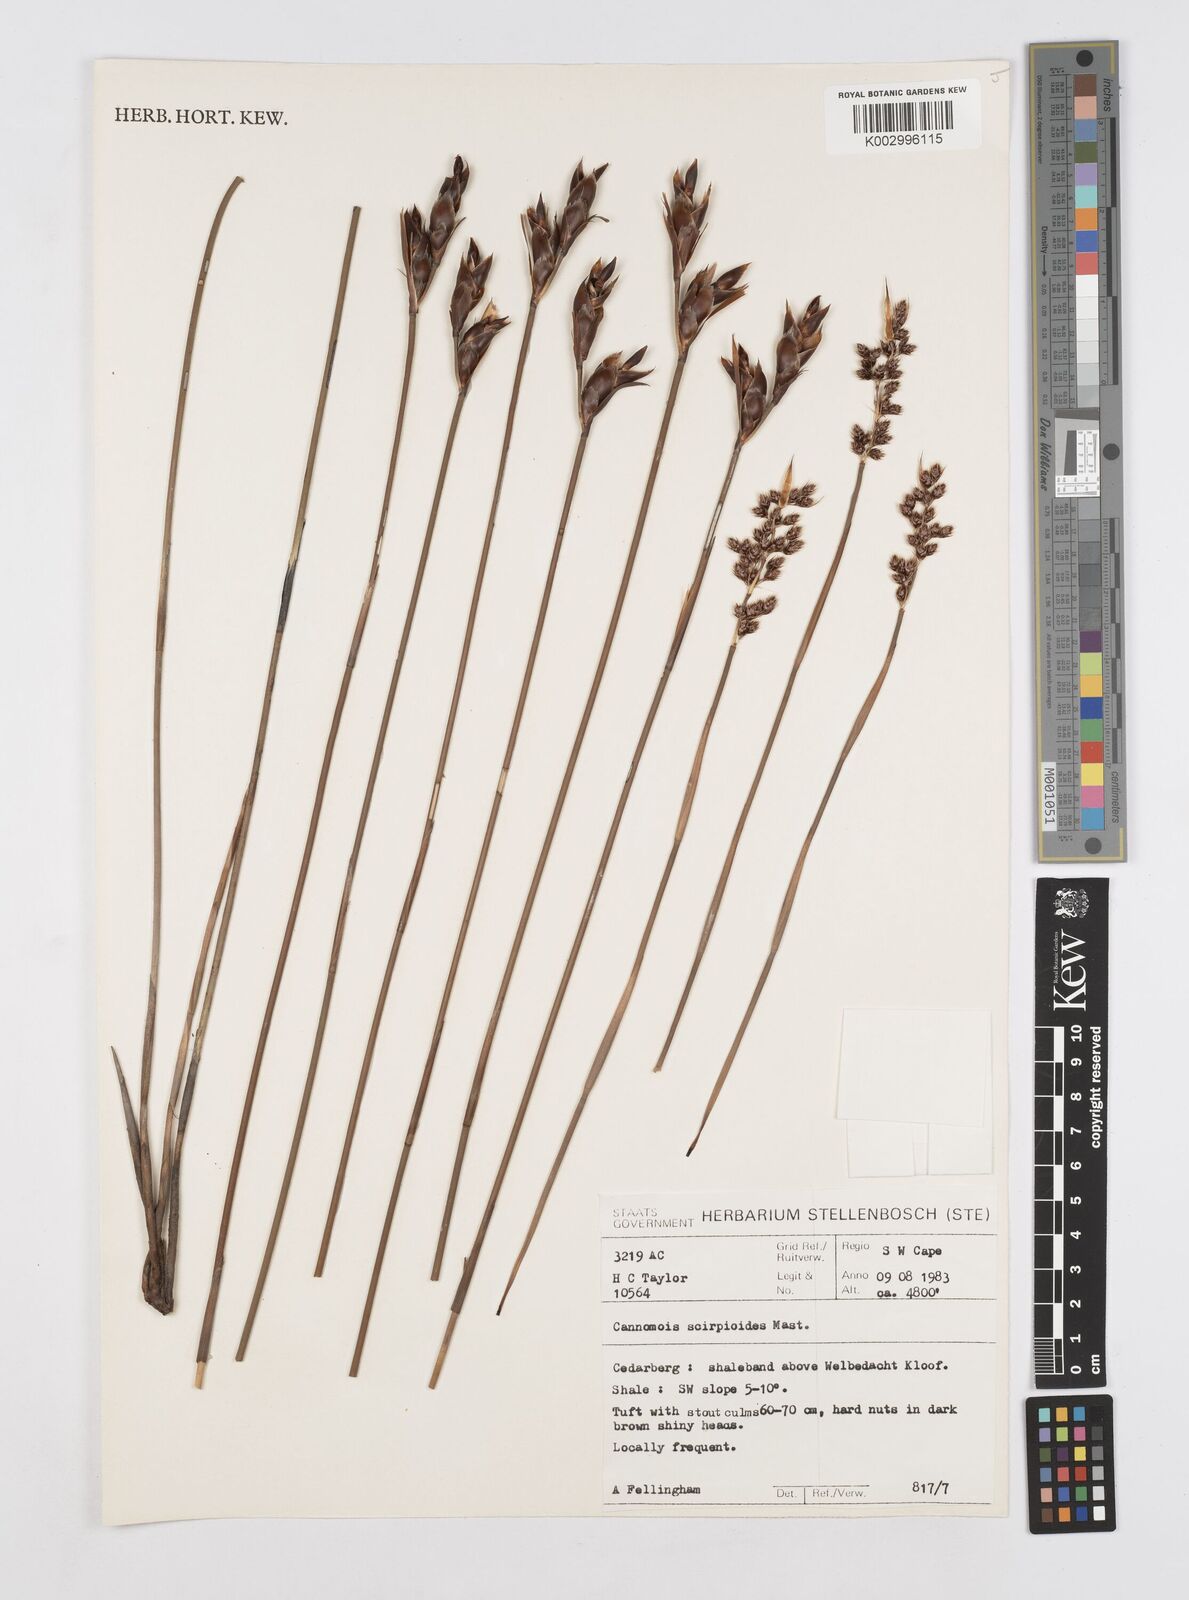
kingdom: Plantae
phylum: Tracheophyta
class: Liliopsida
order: Poales
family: Restionaceae
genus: Cannomois
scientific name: Cannomois scirpoides
